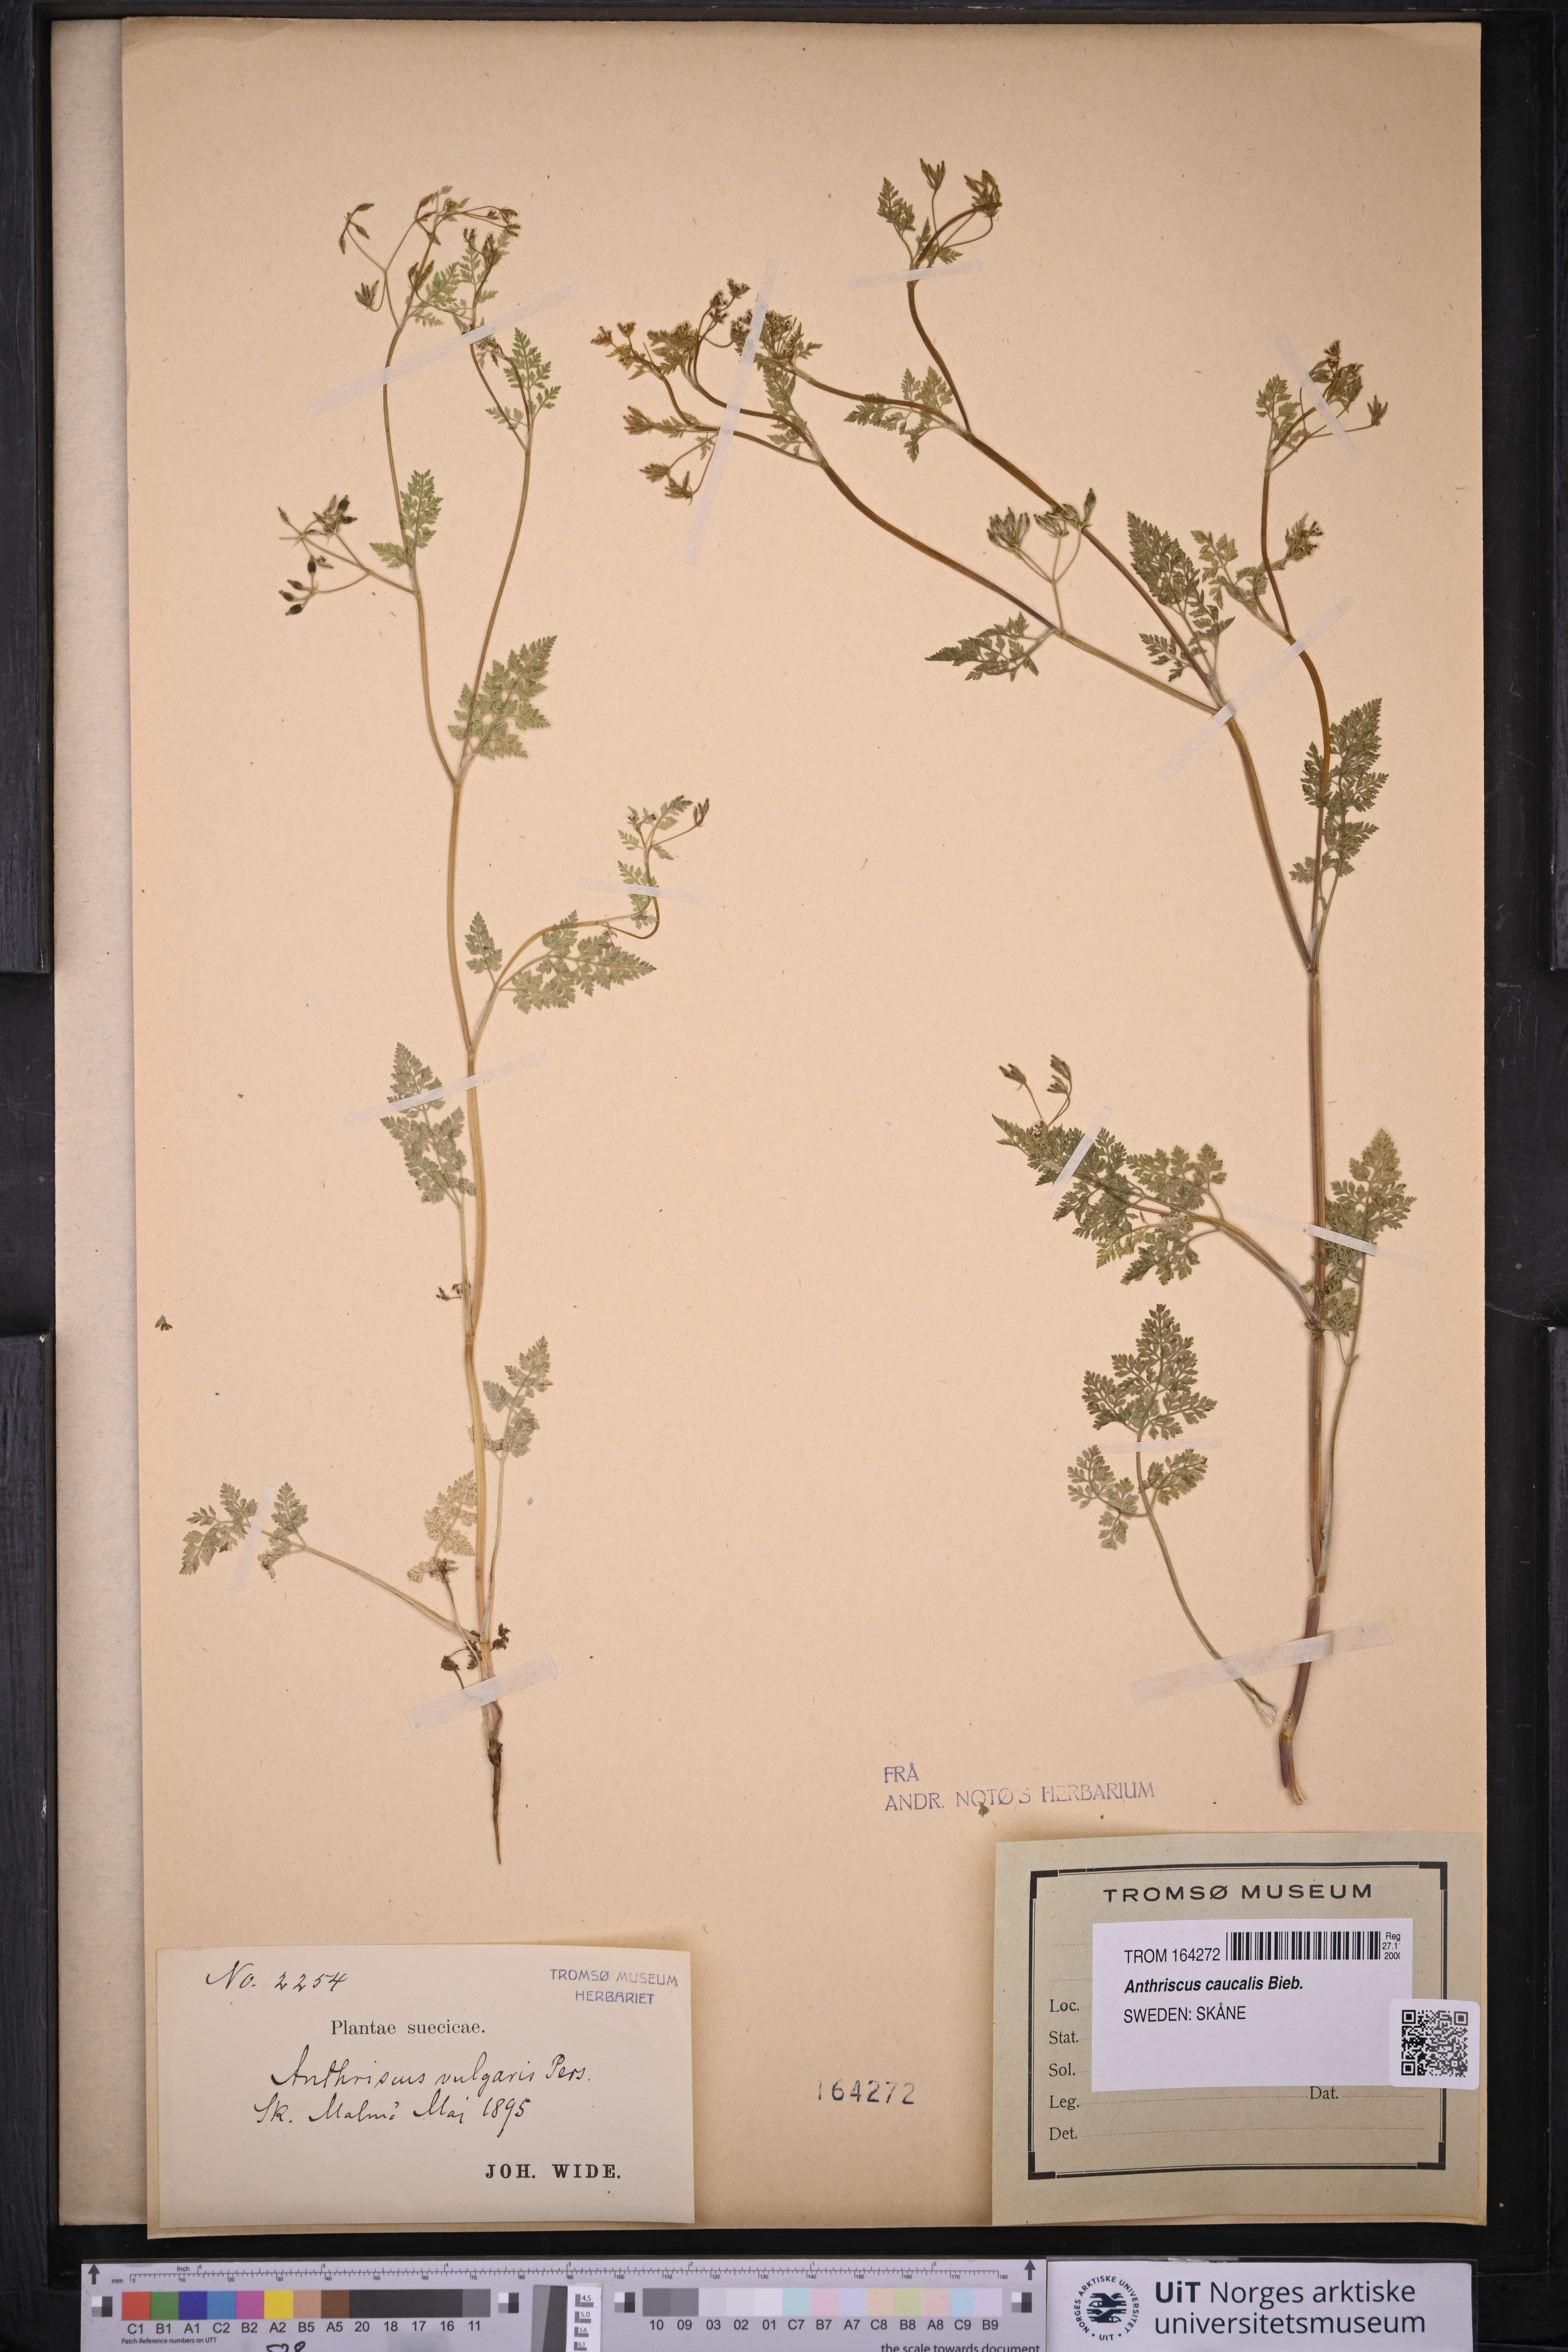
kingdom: Plantae
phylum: Tracheophyta
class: Magnoliopsida
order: Apiales
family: Apiaceae
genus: Anthriscus
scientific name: Anthriscus caucalis
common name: Bur chervil
